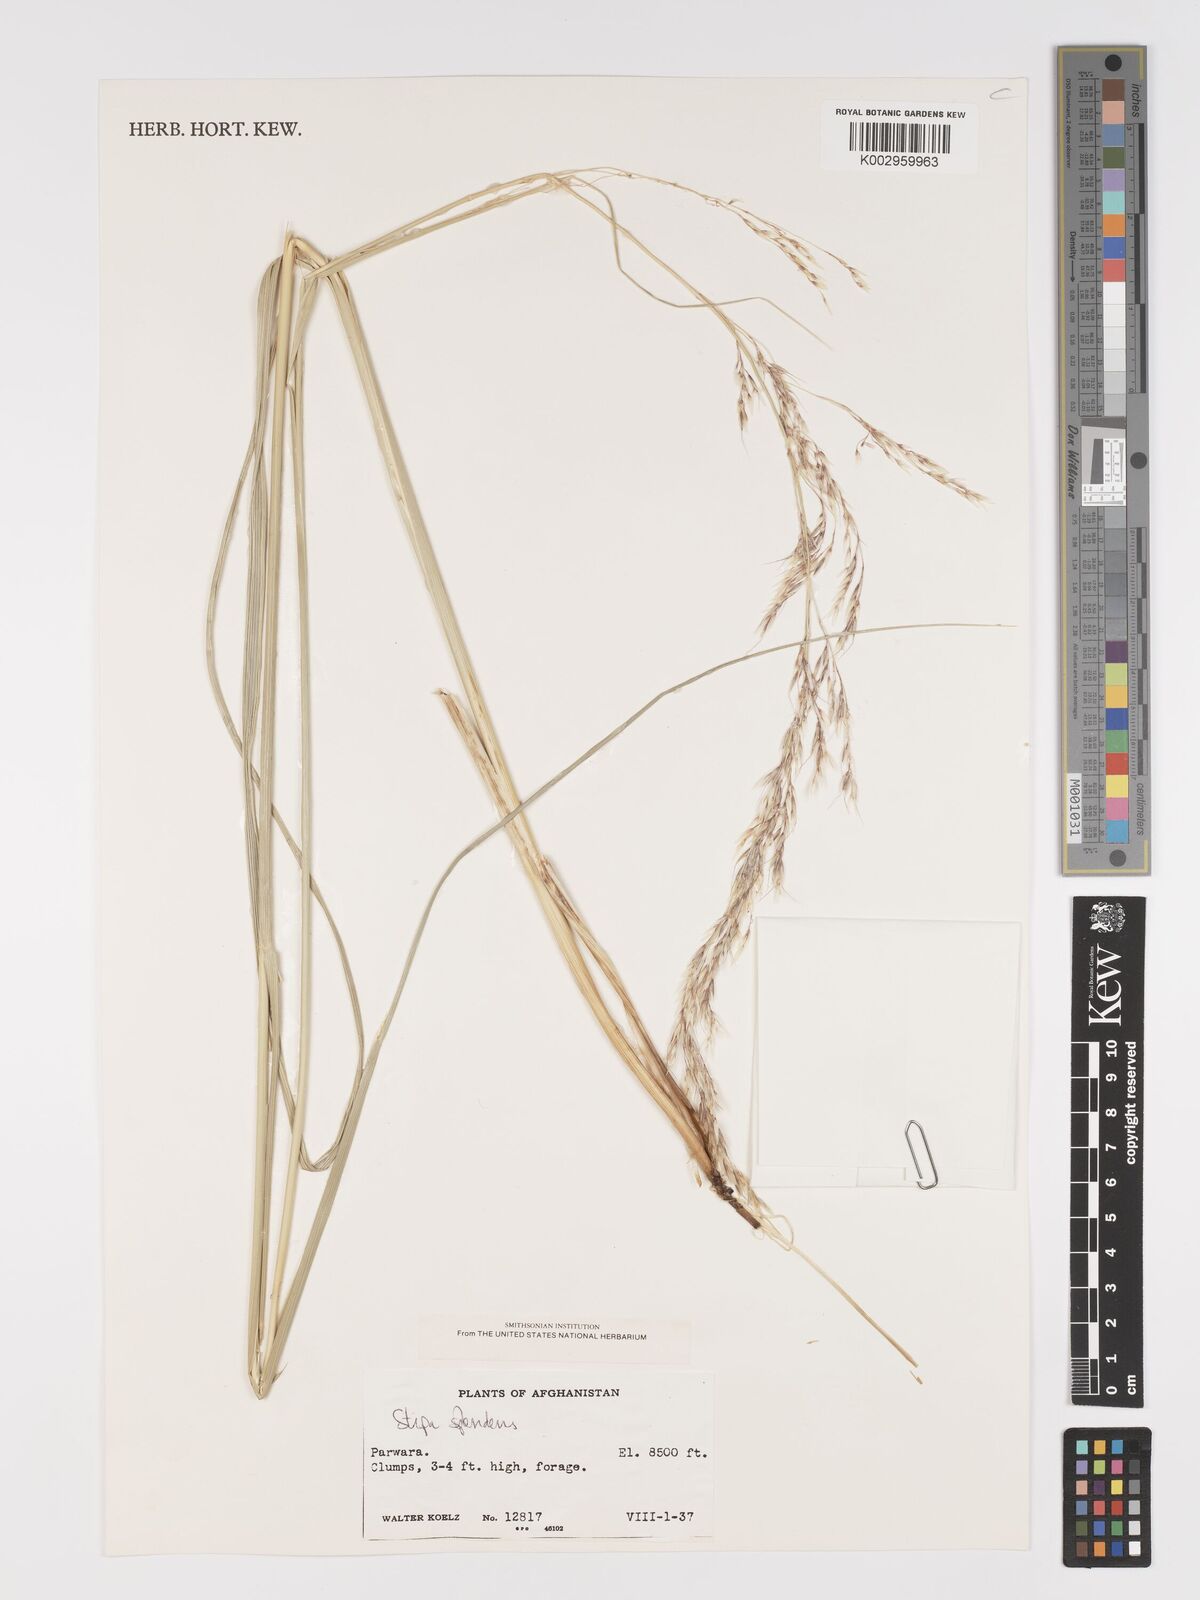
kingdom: Plantae
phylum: Tracheophyta
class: Liliopsida
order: Poales
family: Poaceae
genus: Neotrinia
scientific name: Neotrinia splendens
